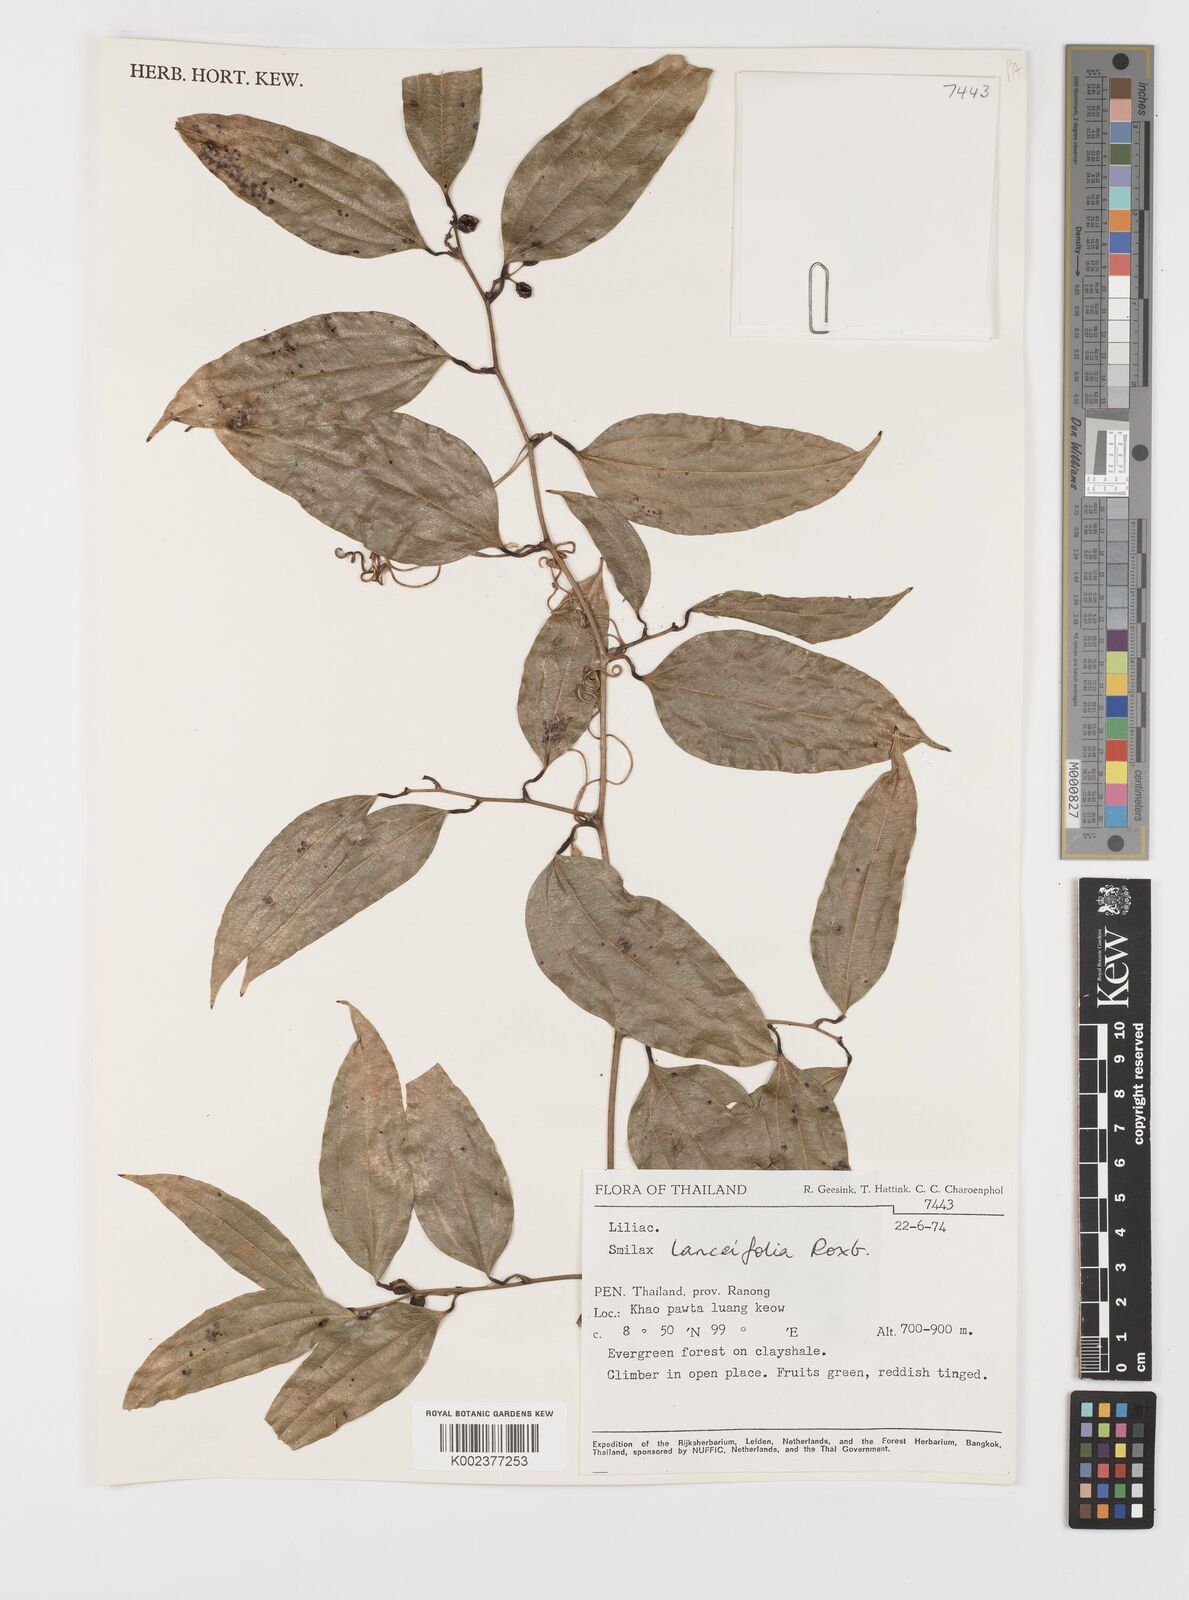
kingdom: Plantae
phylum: Tracheophyta
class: Liliopsida
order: Liliales
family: Smilacaceae
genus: Smilax
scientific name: Smilax lanceifolia
